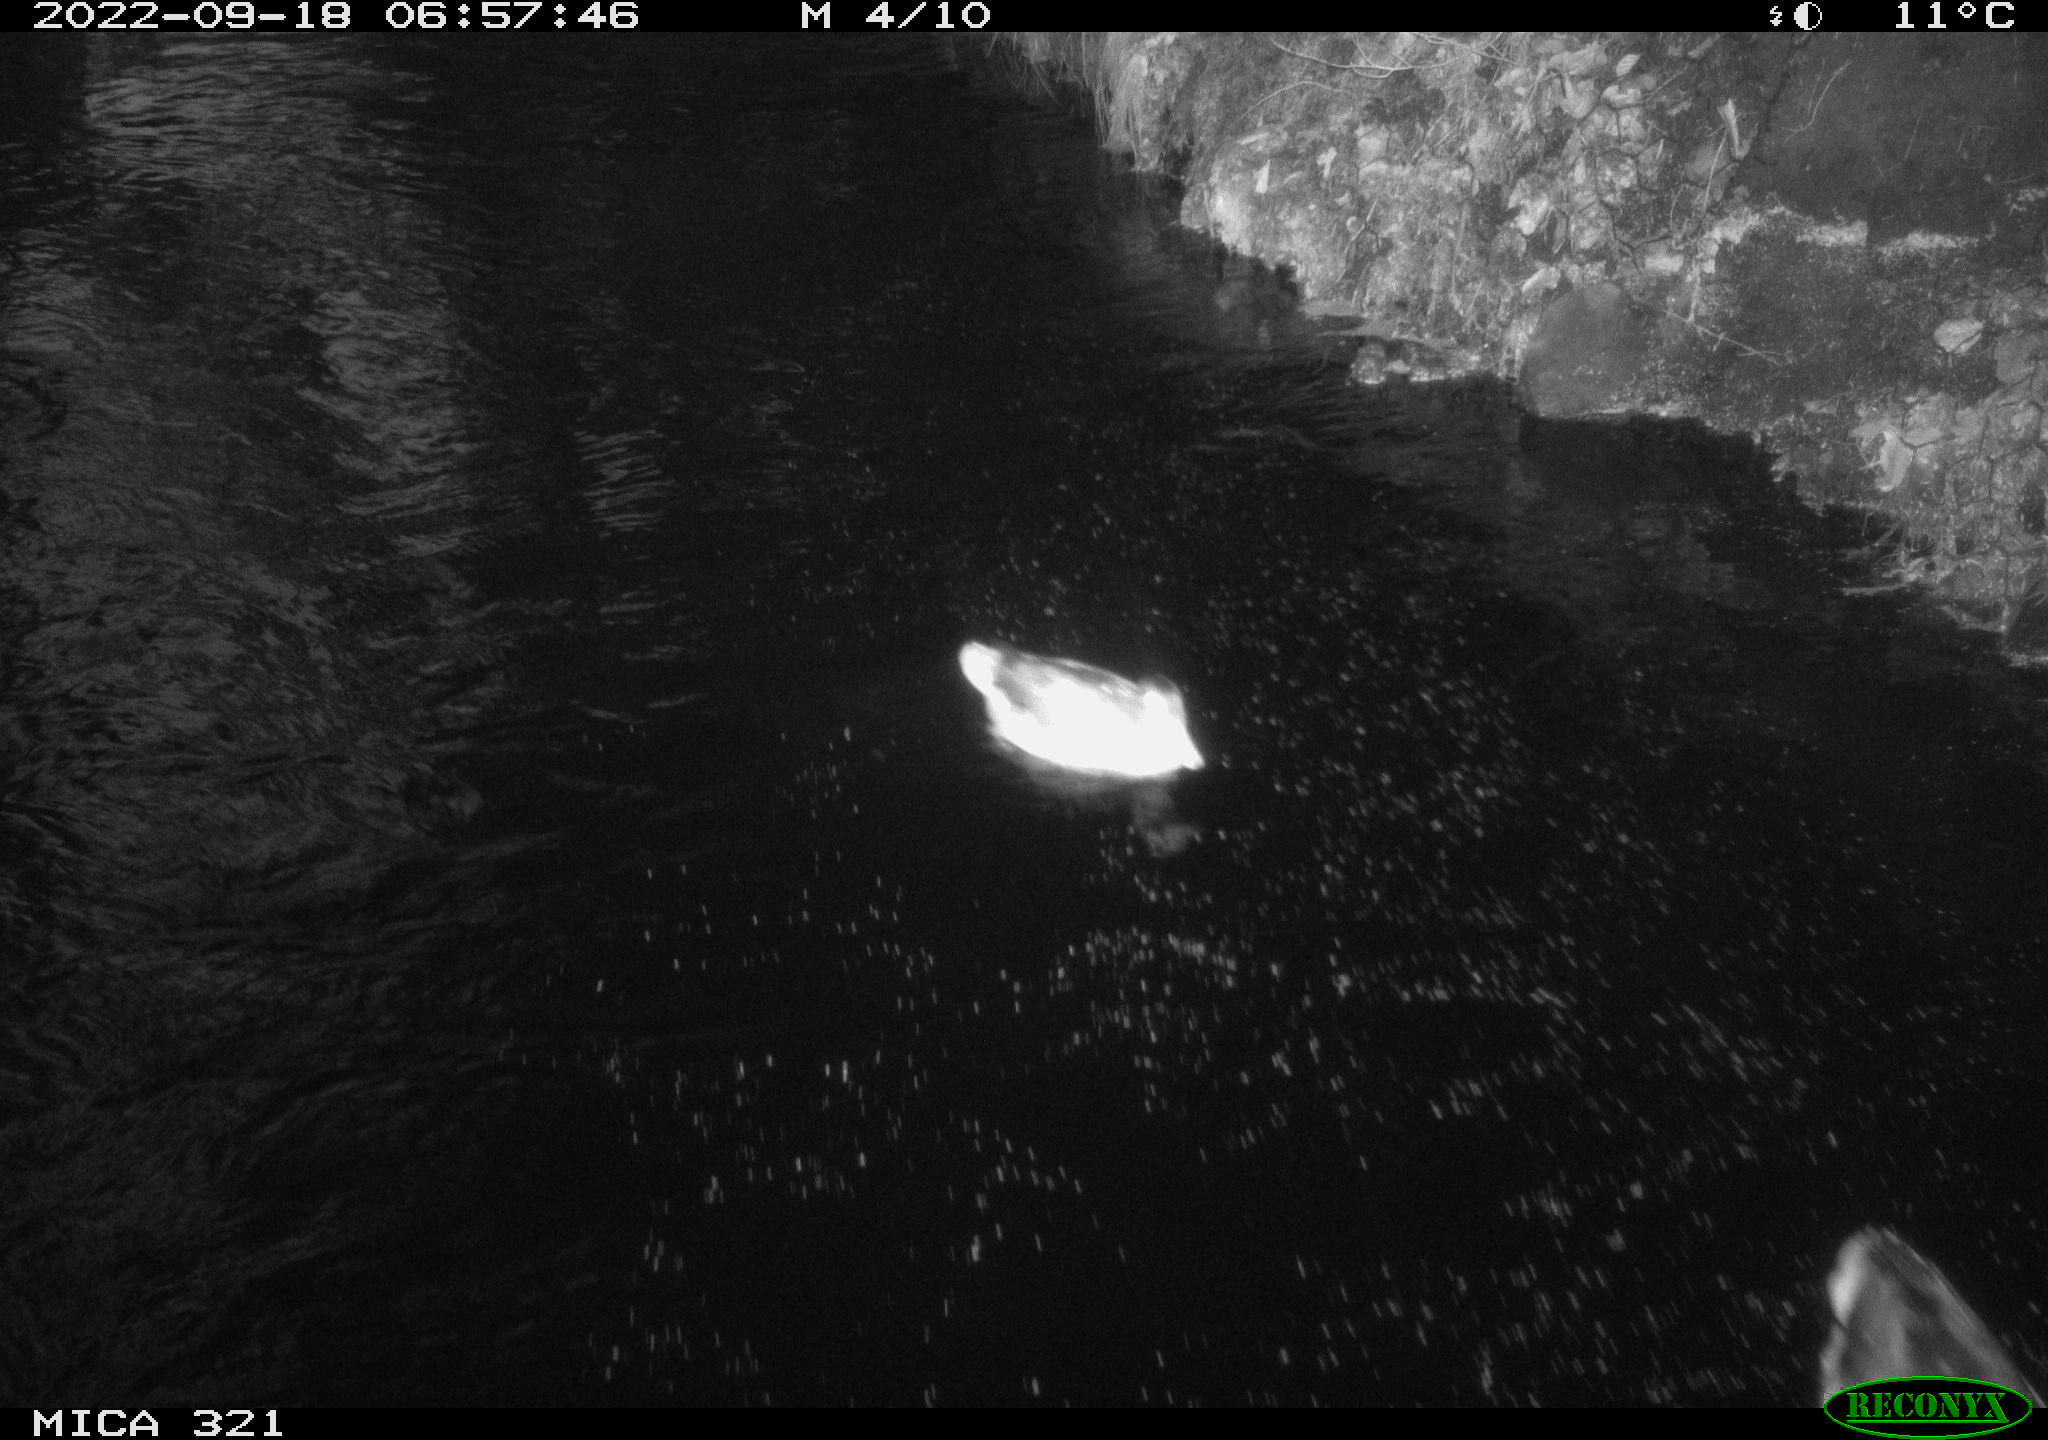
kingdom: Animalia
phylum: Chordata
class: Aves
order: Anseriformes
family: Anatidae
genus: Anas
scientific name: Anas
